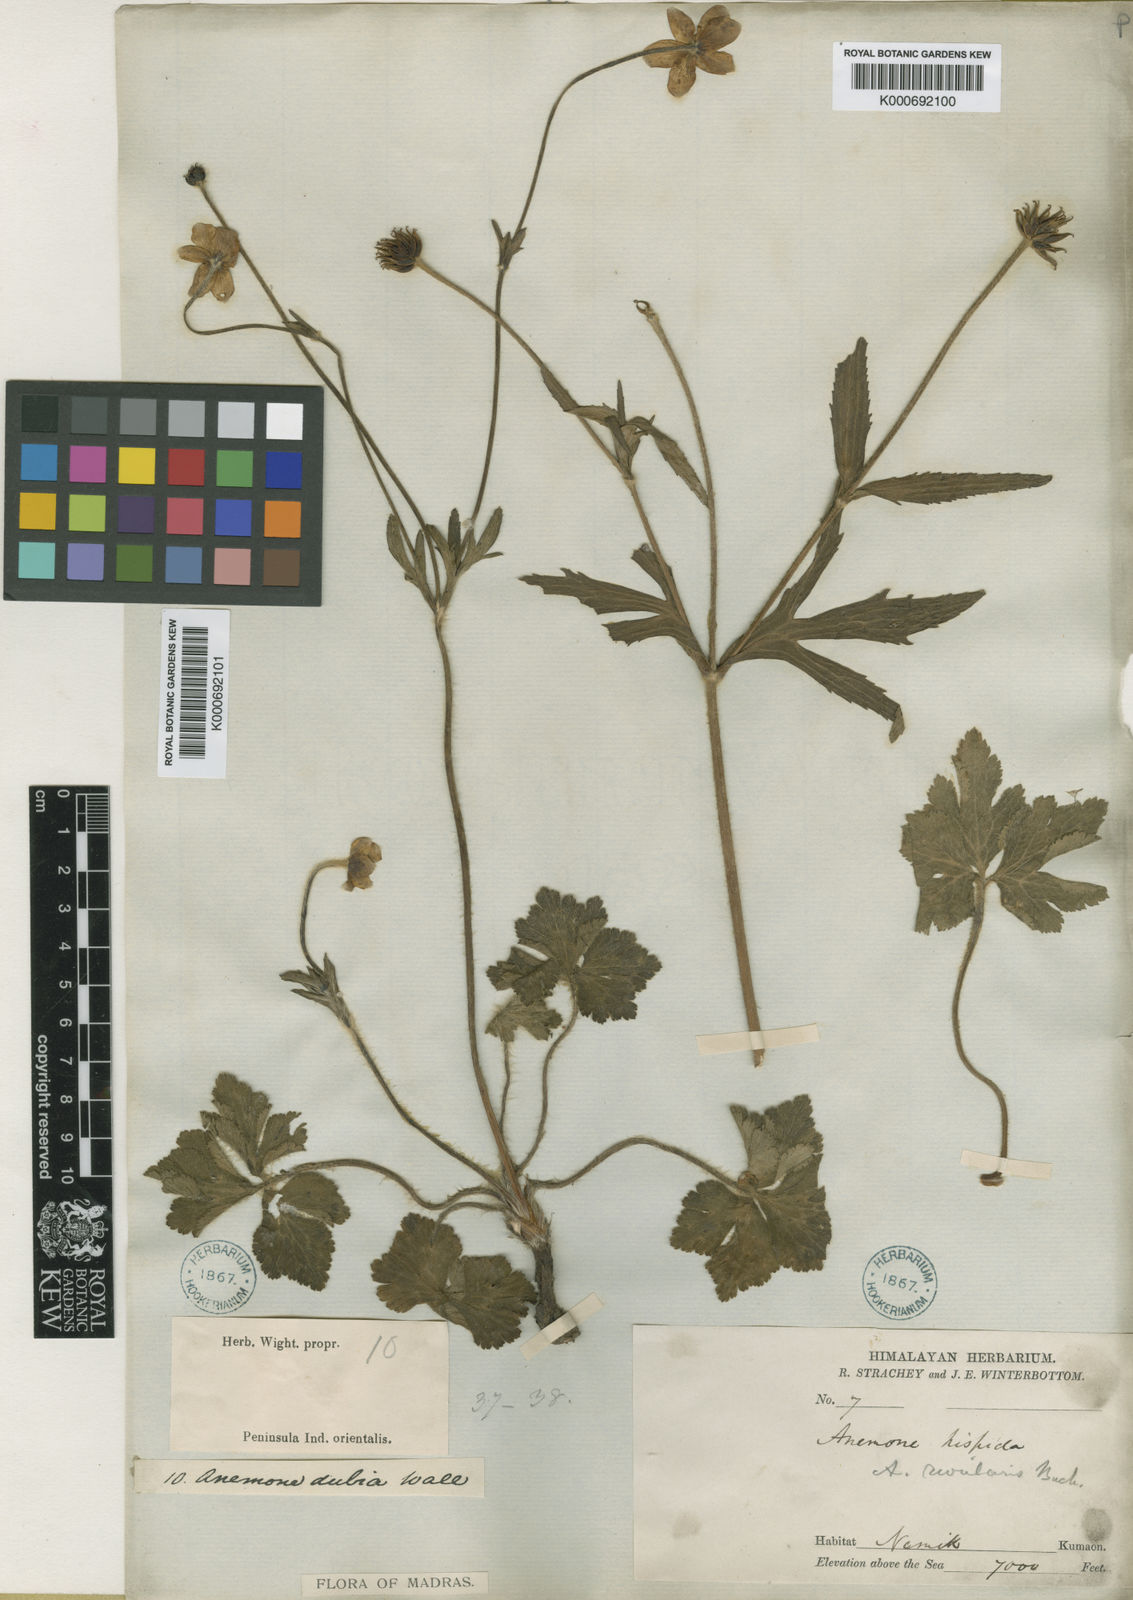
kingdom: Plantae
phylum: Tracheophyta
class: Magnoliopsida
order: Ranunculales
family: Ranunculaceae
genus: Eriocapitella
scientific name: Eriocapitella rivularis
